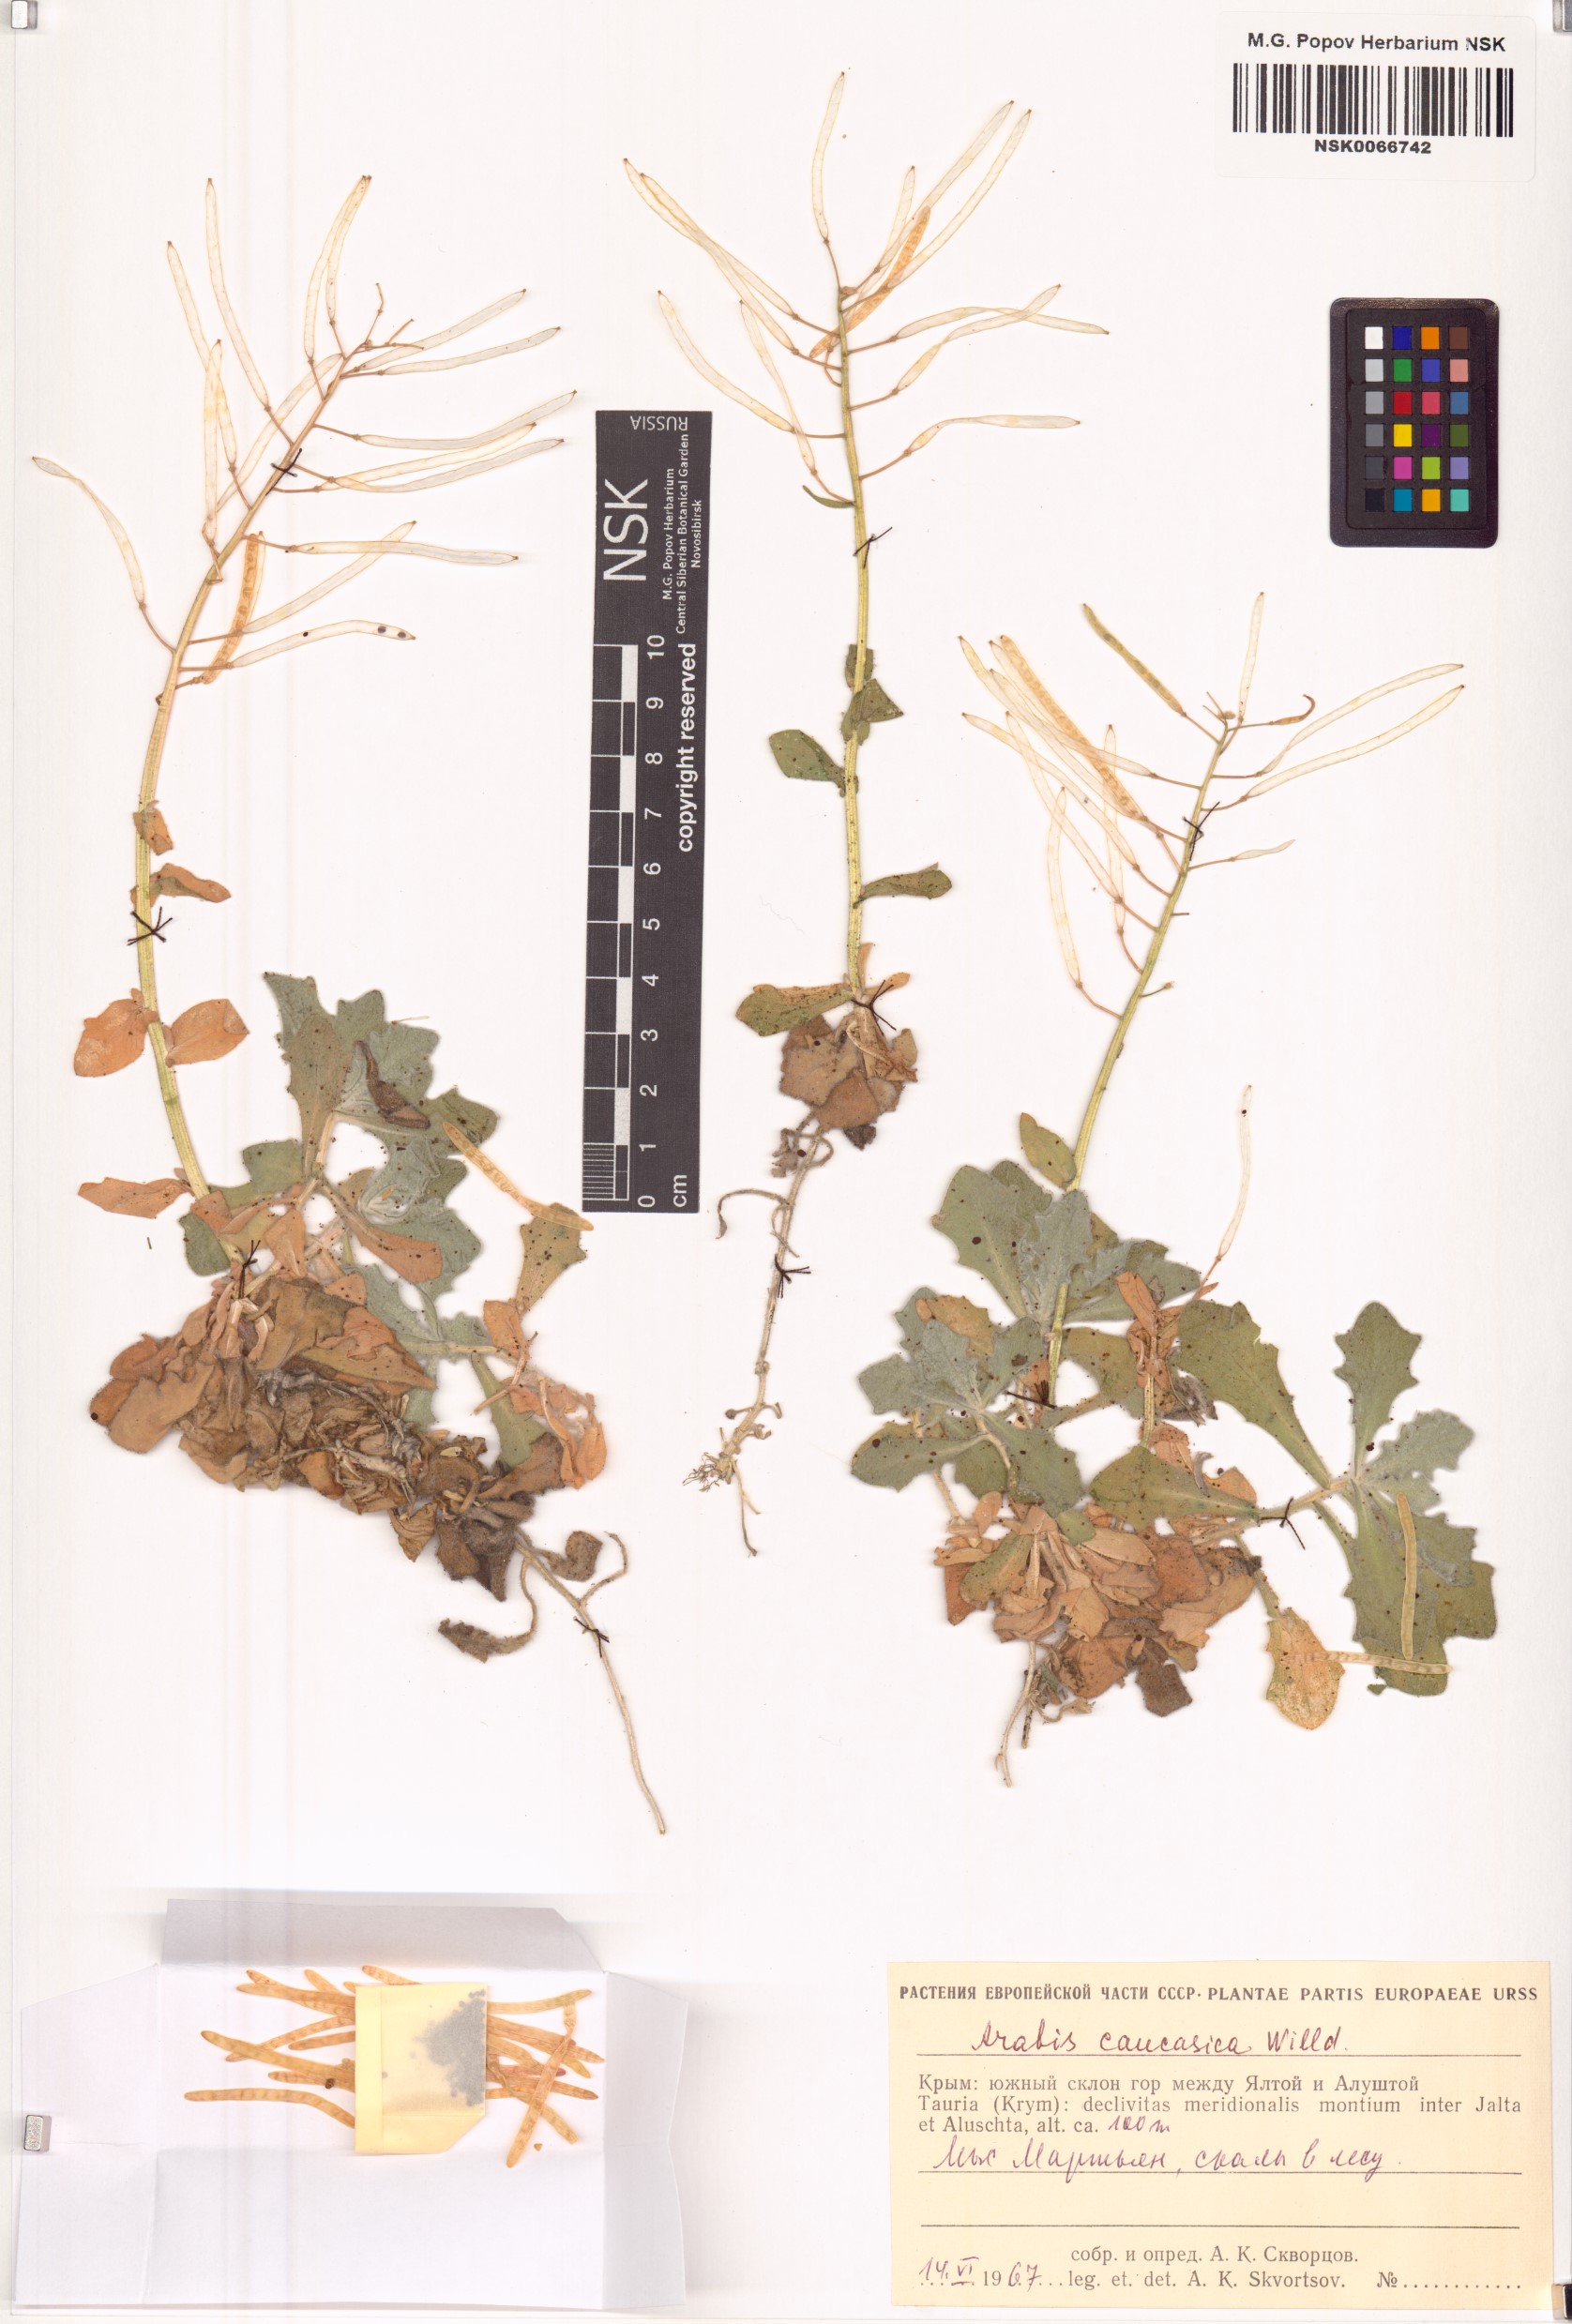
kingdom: Plantae
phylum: Tracheophyta
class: Magnoliopsida
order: Brassicales
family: Brassicaceae
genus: Arabis
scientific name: Arabis caucasica
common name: Gray rockcress
